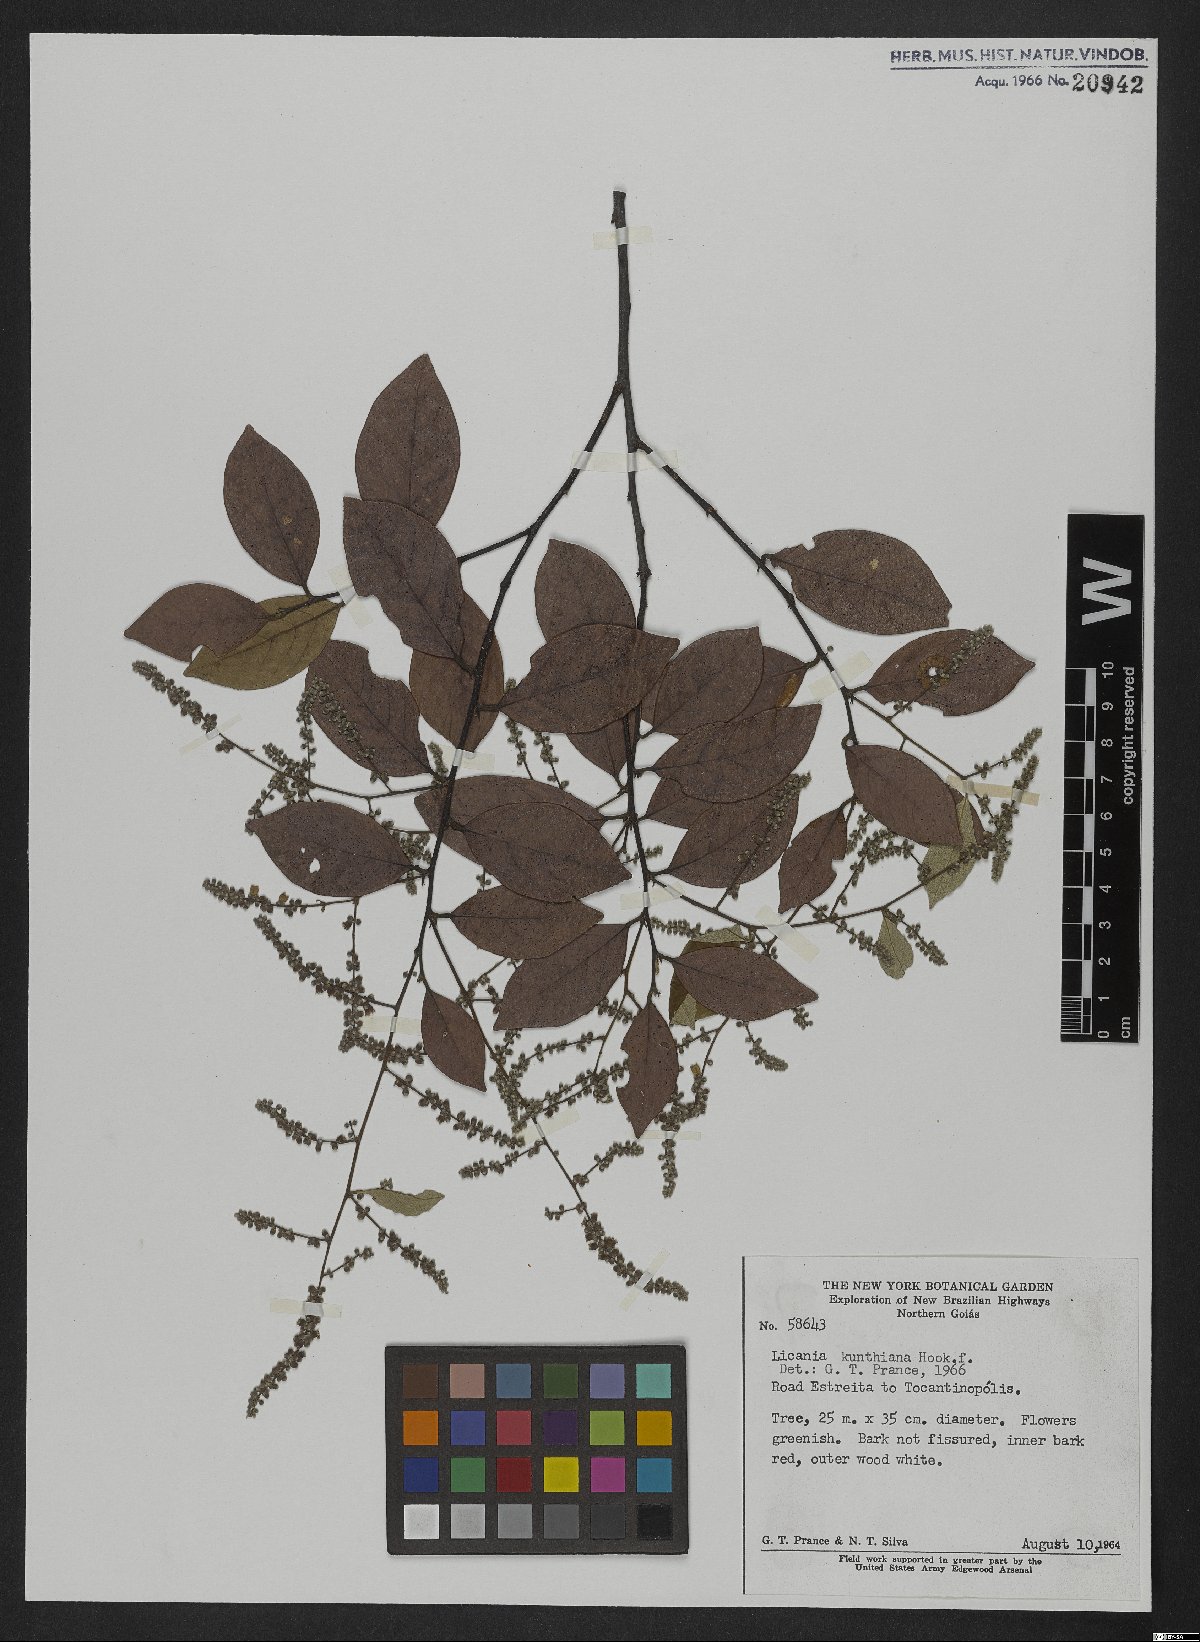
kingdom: Plantae
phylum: Tracheophyta
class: Magnoliopsida
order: Malpighiales
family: Chrysobalanaceae
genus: Licania
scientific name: Licania kunthiana
